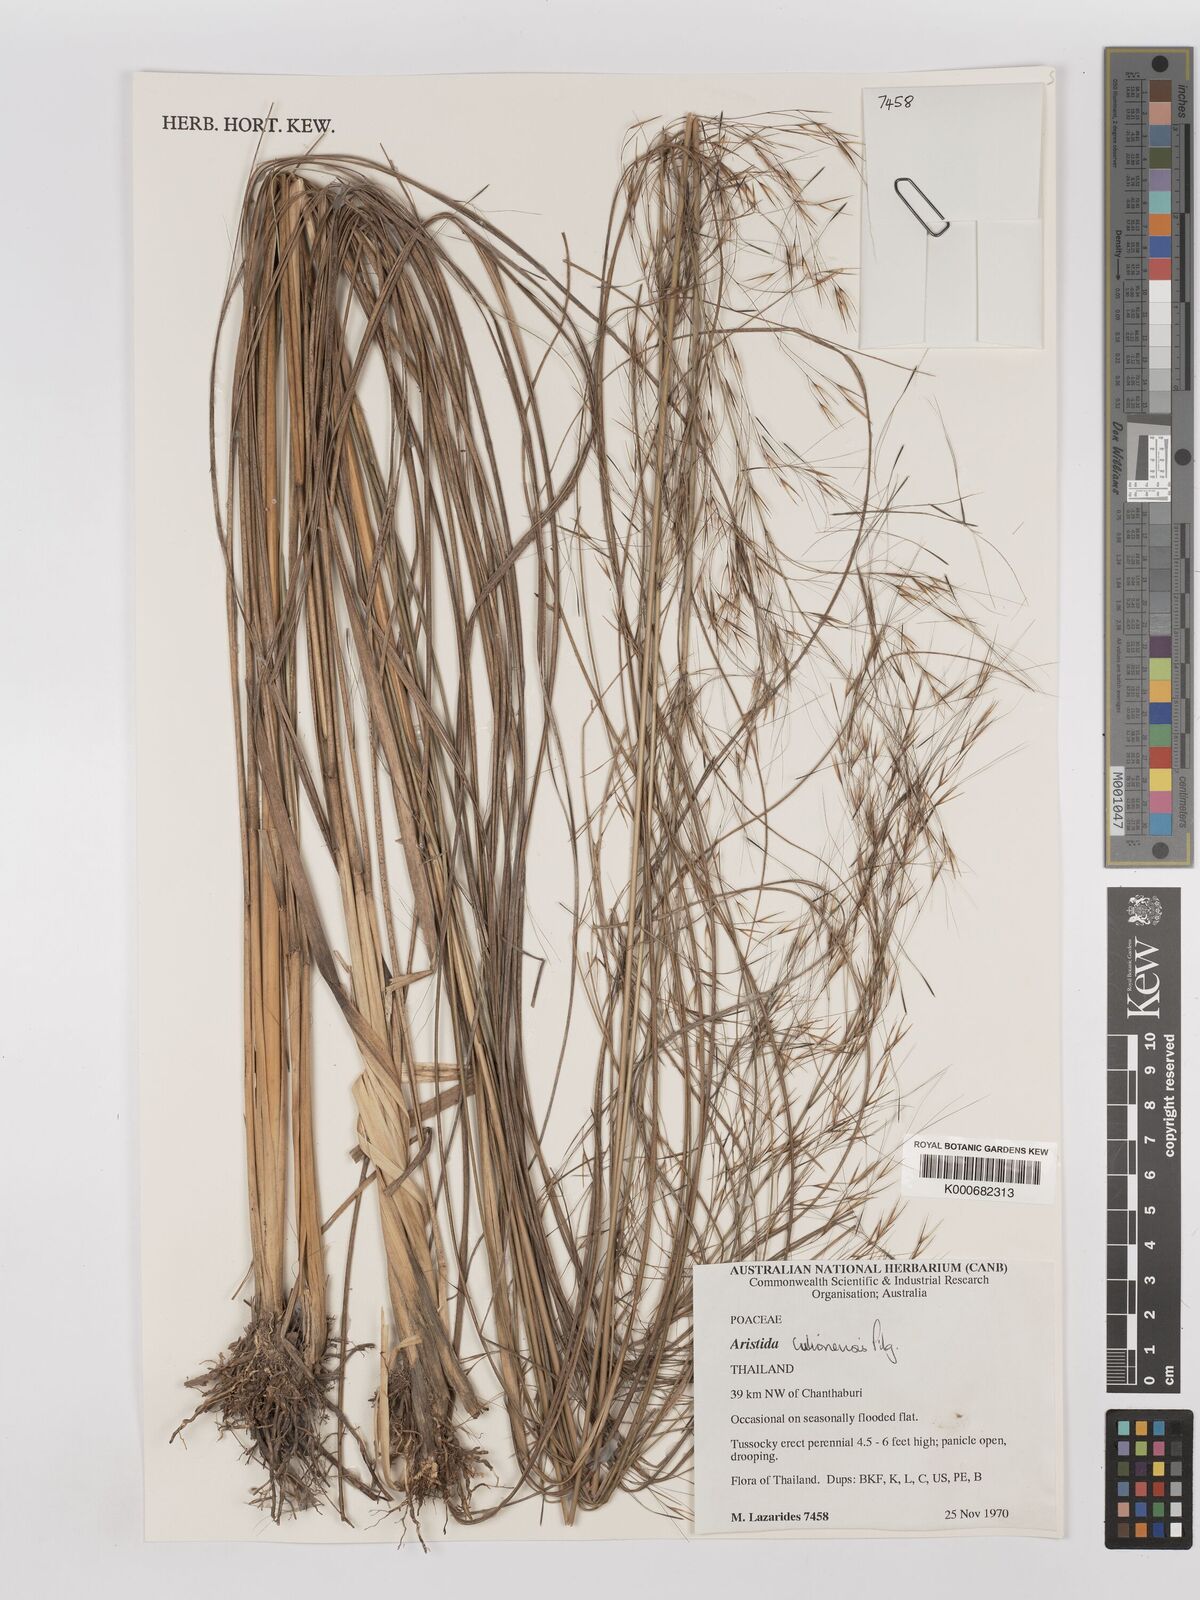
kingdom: Plantae
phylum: Tracheophyta
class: Liliopsida
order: Poales
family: Poaceae
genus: Aristida
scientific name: Aristida culionensis
